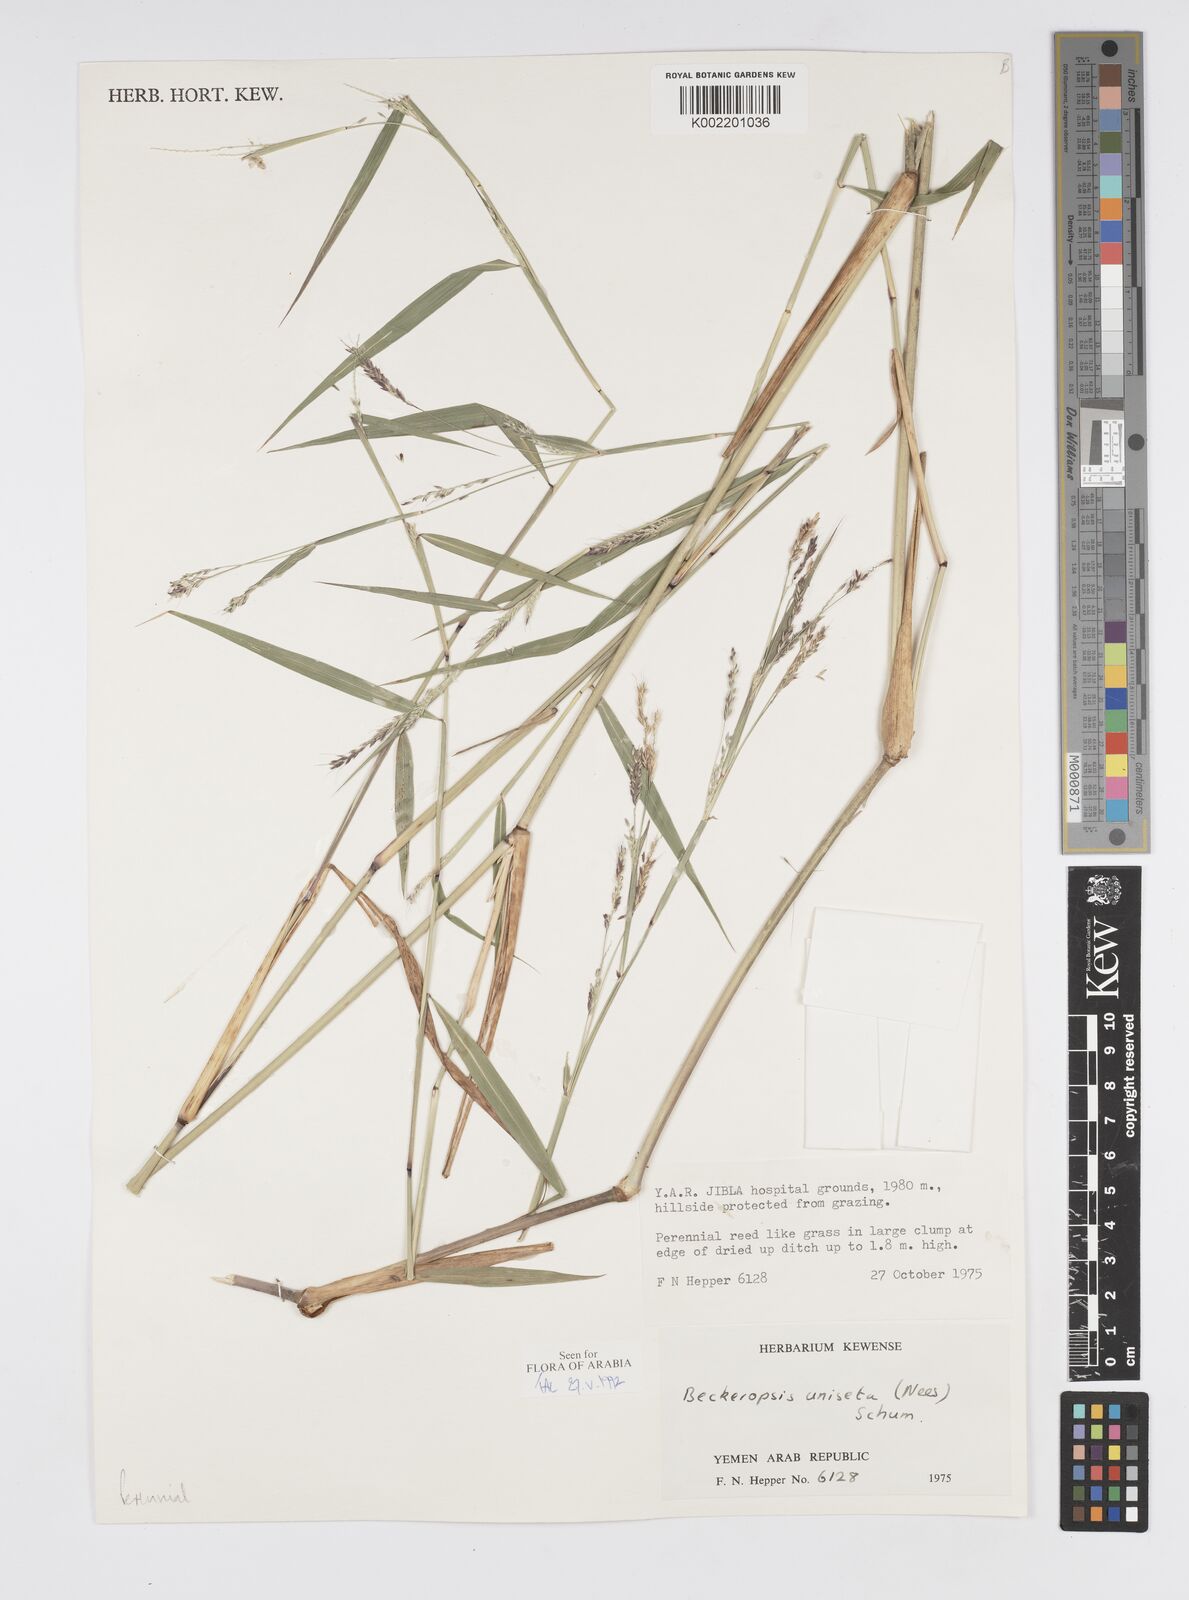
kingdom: Plantae
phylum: Tracheophyta
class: Liliopsida
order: Poales
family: Poaceae
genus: Cenchrus
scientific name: Cenchrus unisetus
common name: Natal grass
